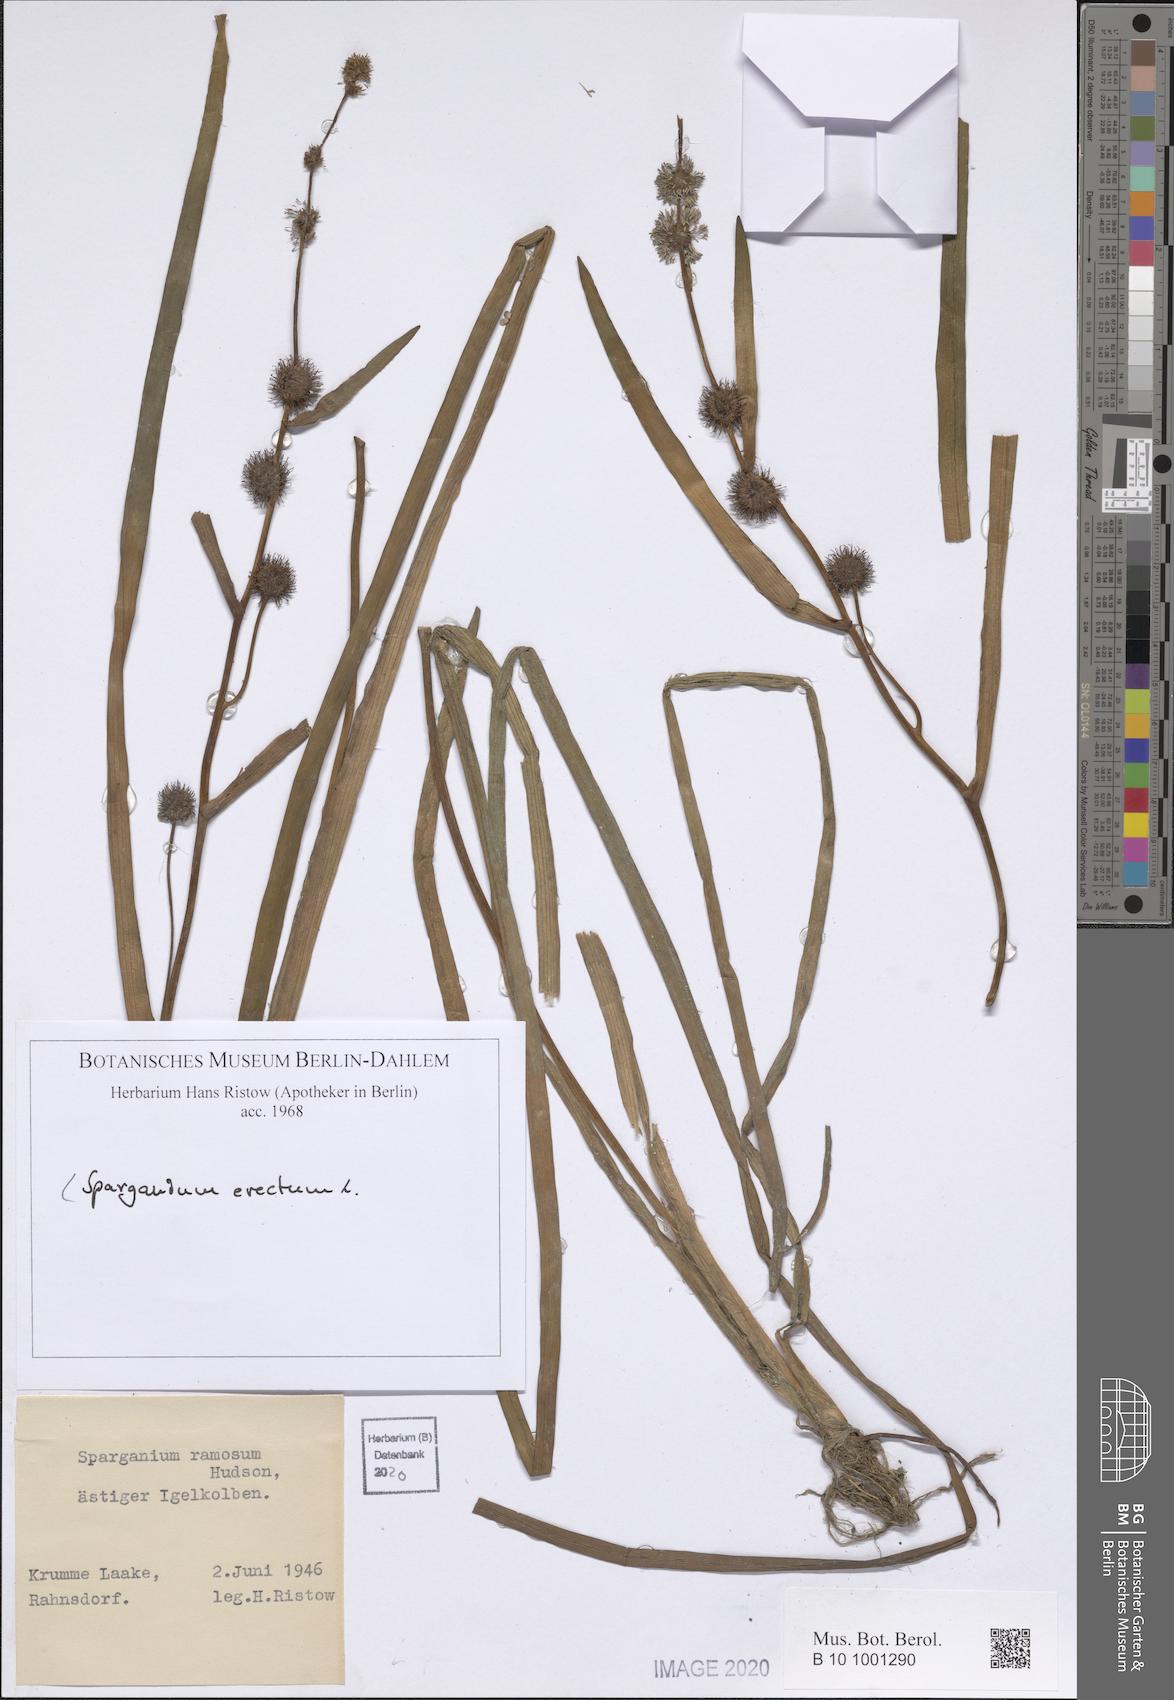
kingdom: Plantae
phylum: Tracheophyta
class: Liliopsida
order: Poales
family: Typhaceae
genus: Sparganium
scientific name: Sparganium erectum
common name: Branched bur-reed
